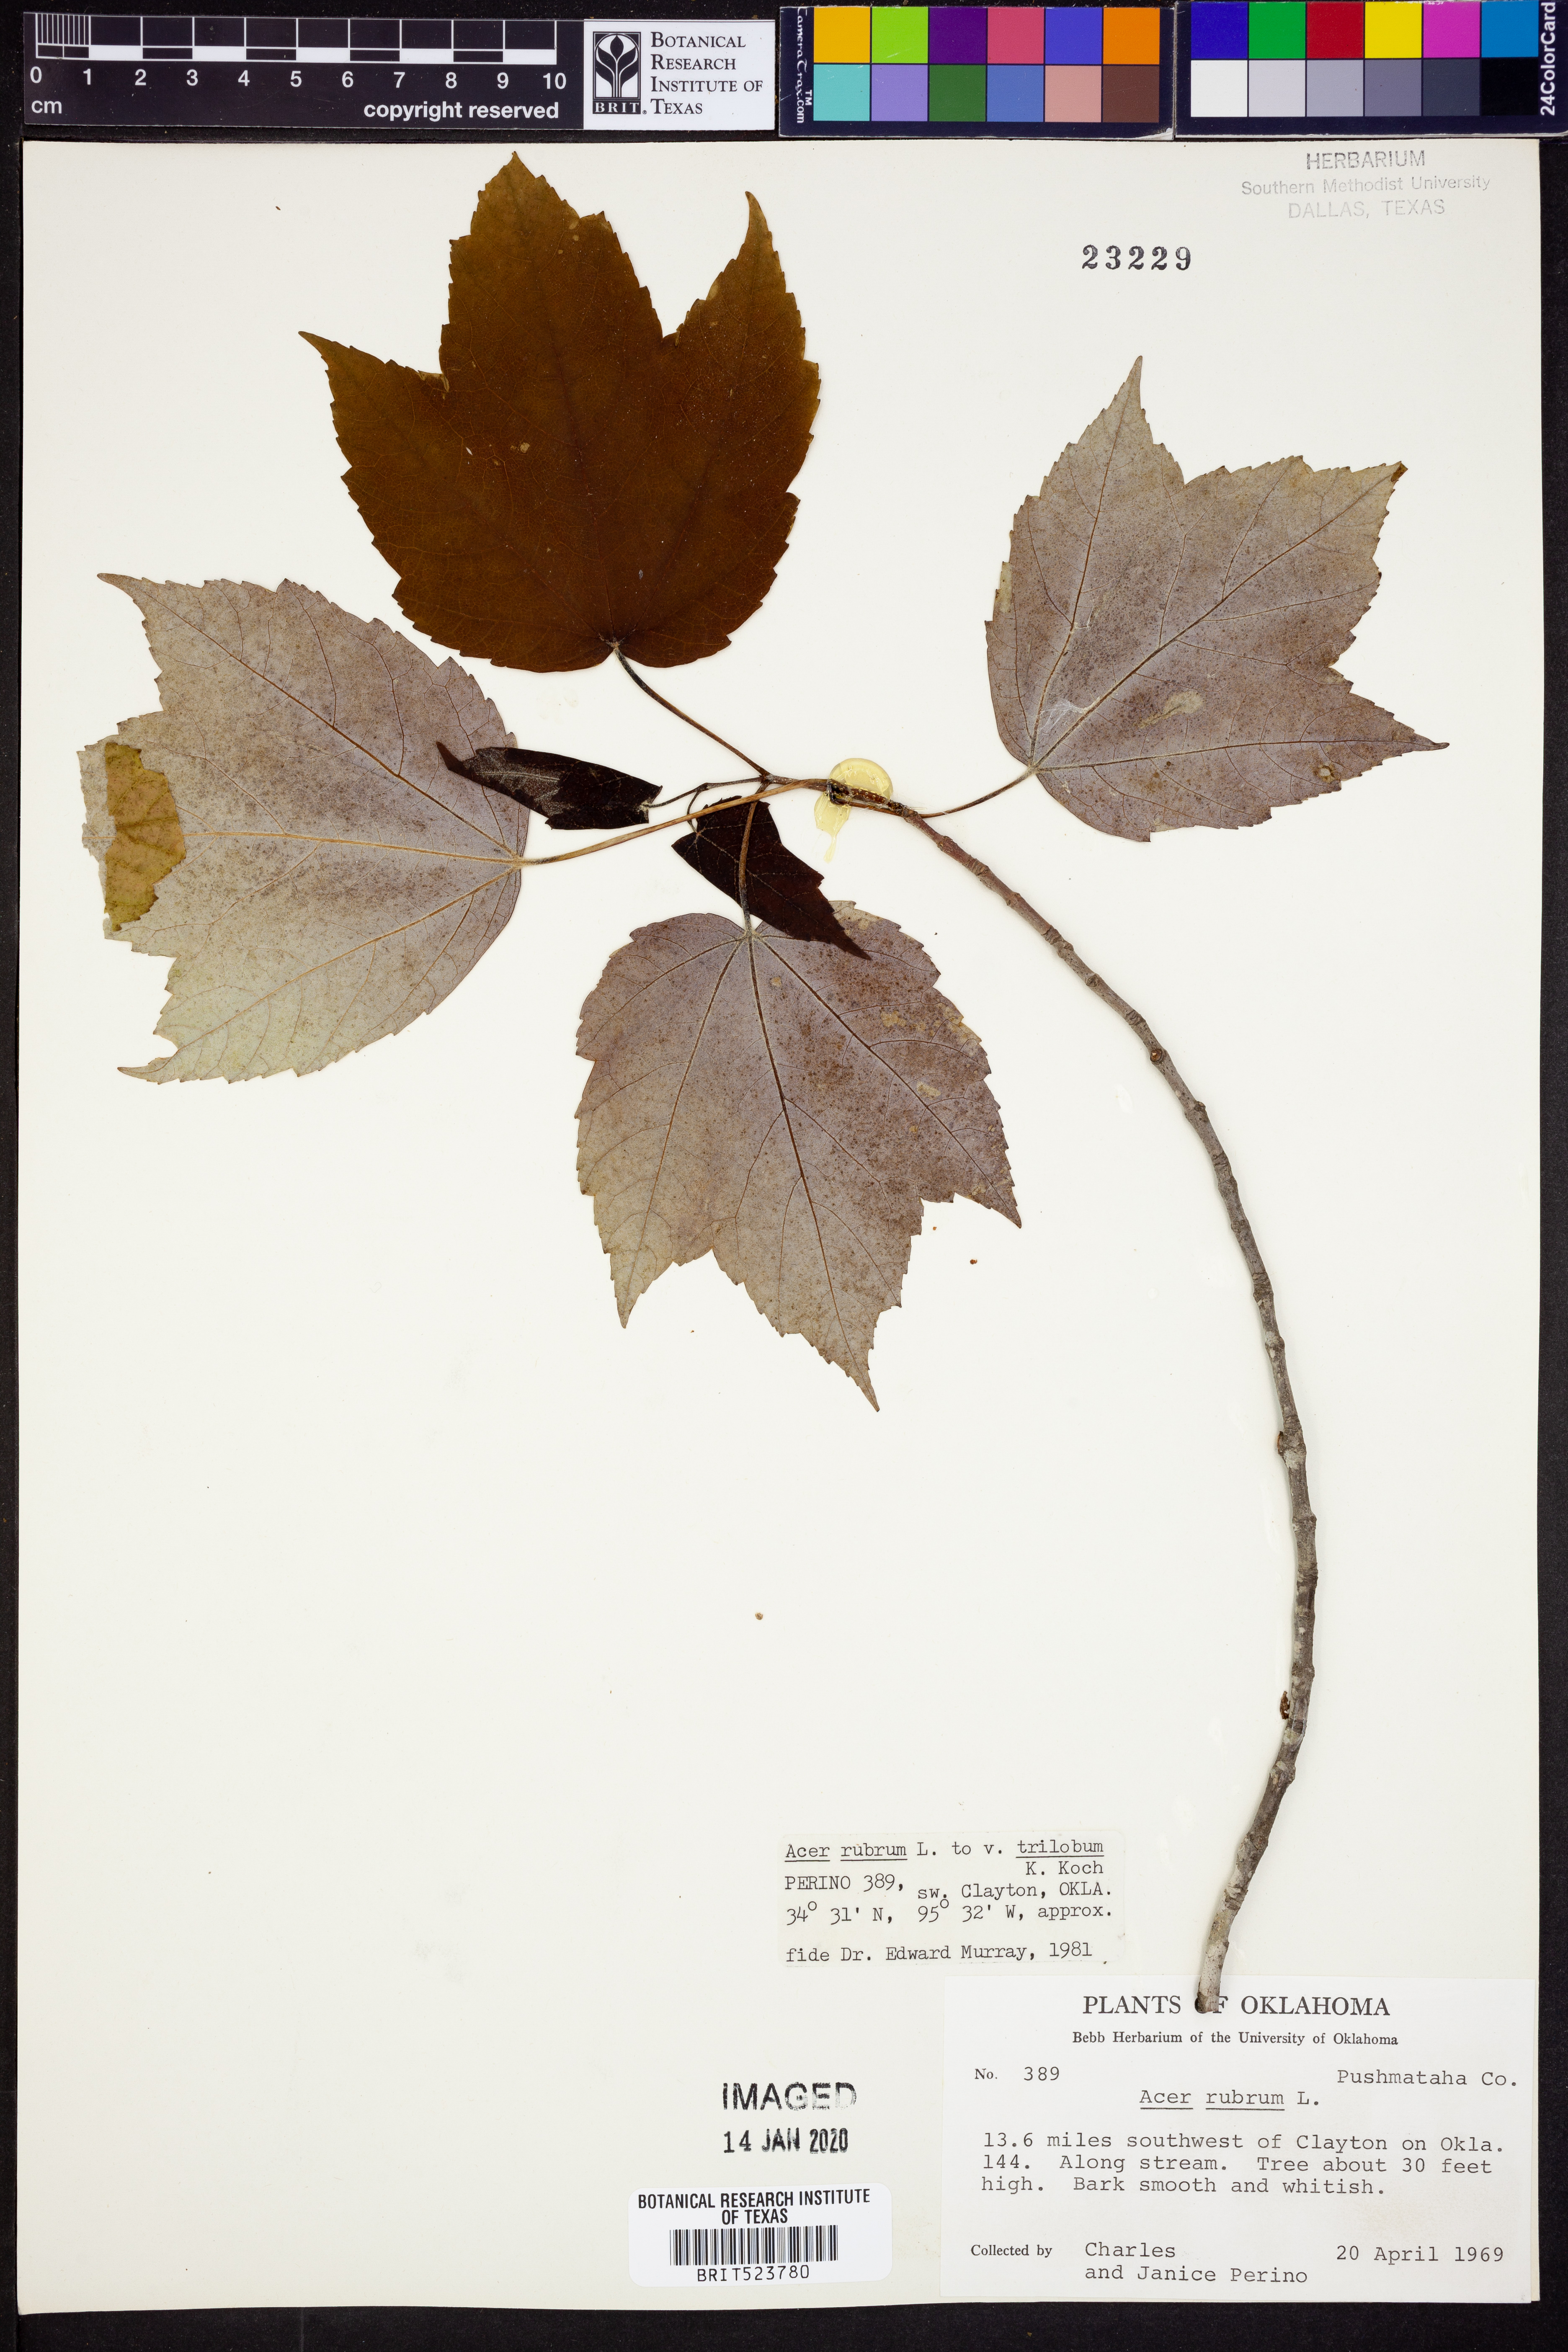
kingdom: Plantae
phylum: Tracheophyta
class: Magnoliopsida
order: Sapindales
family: Sapindaceae
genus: Acer
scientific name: Acer rubrum
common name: Red maple
